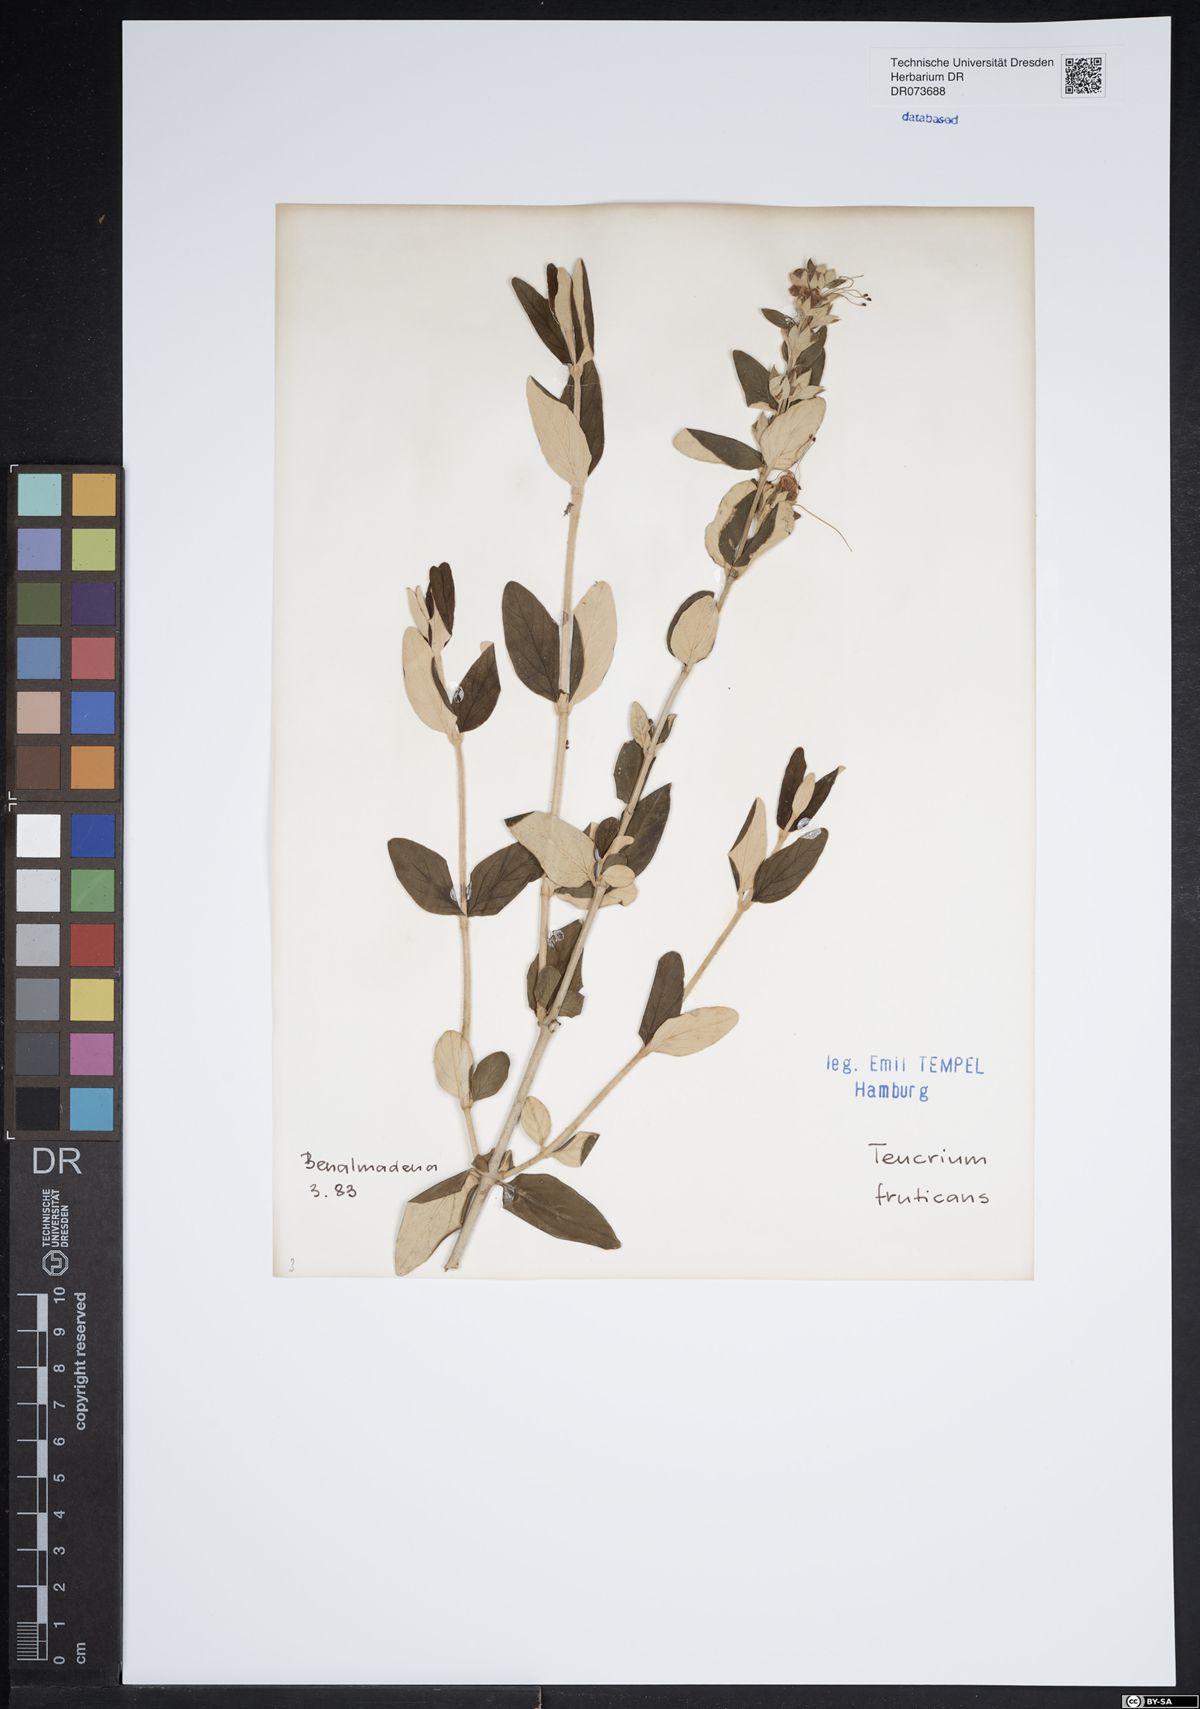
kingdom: Plantae
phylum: Tracheophyta
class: Magnoliopsida
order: Lamiales
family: Lamiaceae
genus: Teucrium
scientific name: Teucrium fruticans
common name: Shrubby germander
